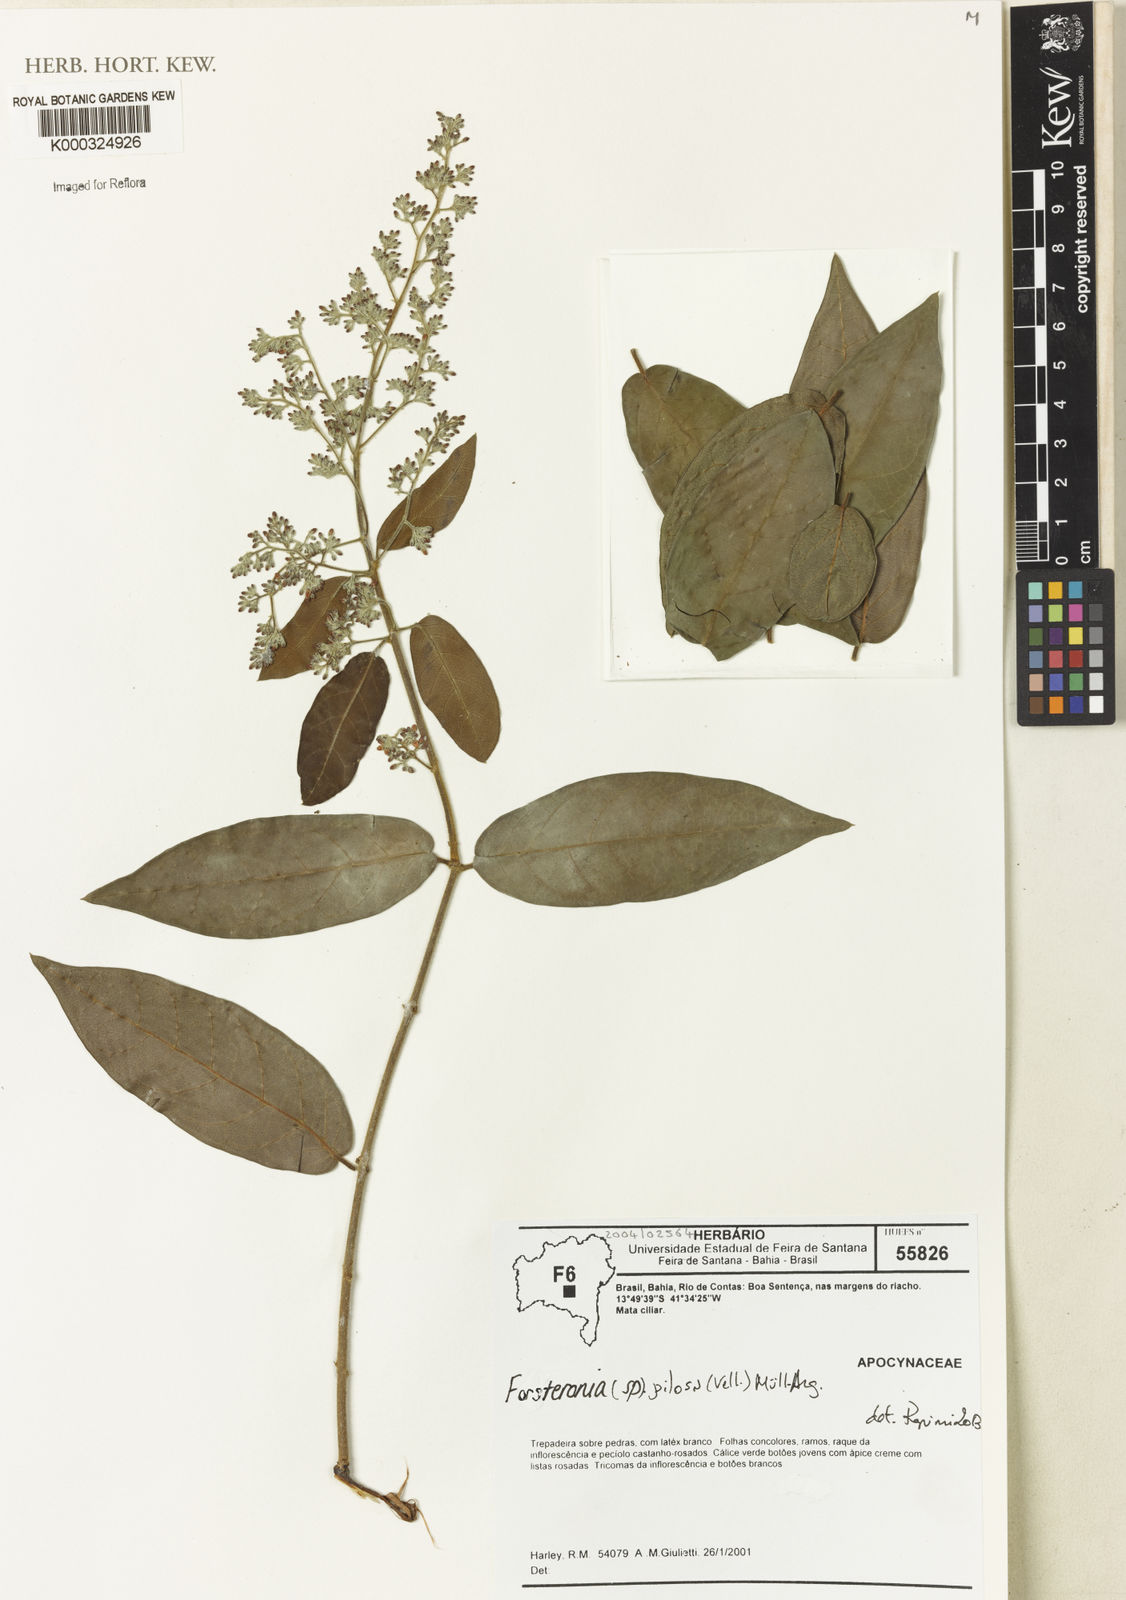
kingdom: Plantae
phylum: Tracheophyta
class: Magnoliopsida
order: Gentianales
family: Apocynaceae
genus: Forsteronia
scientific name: Forsteronia
